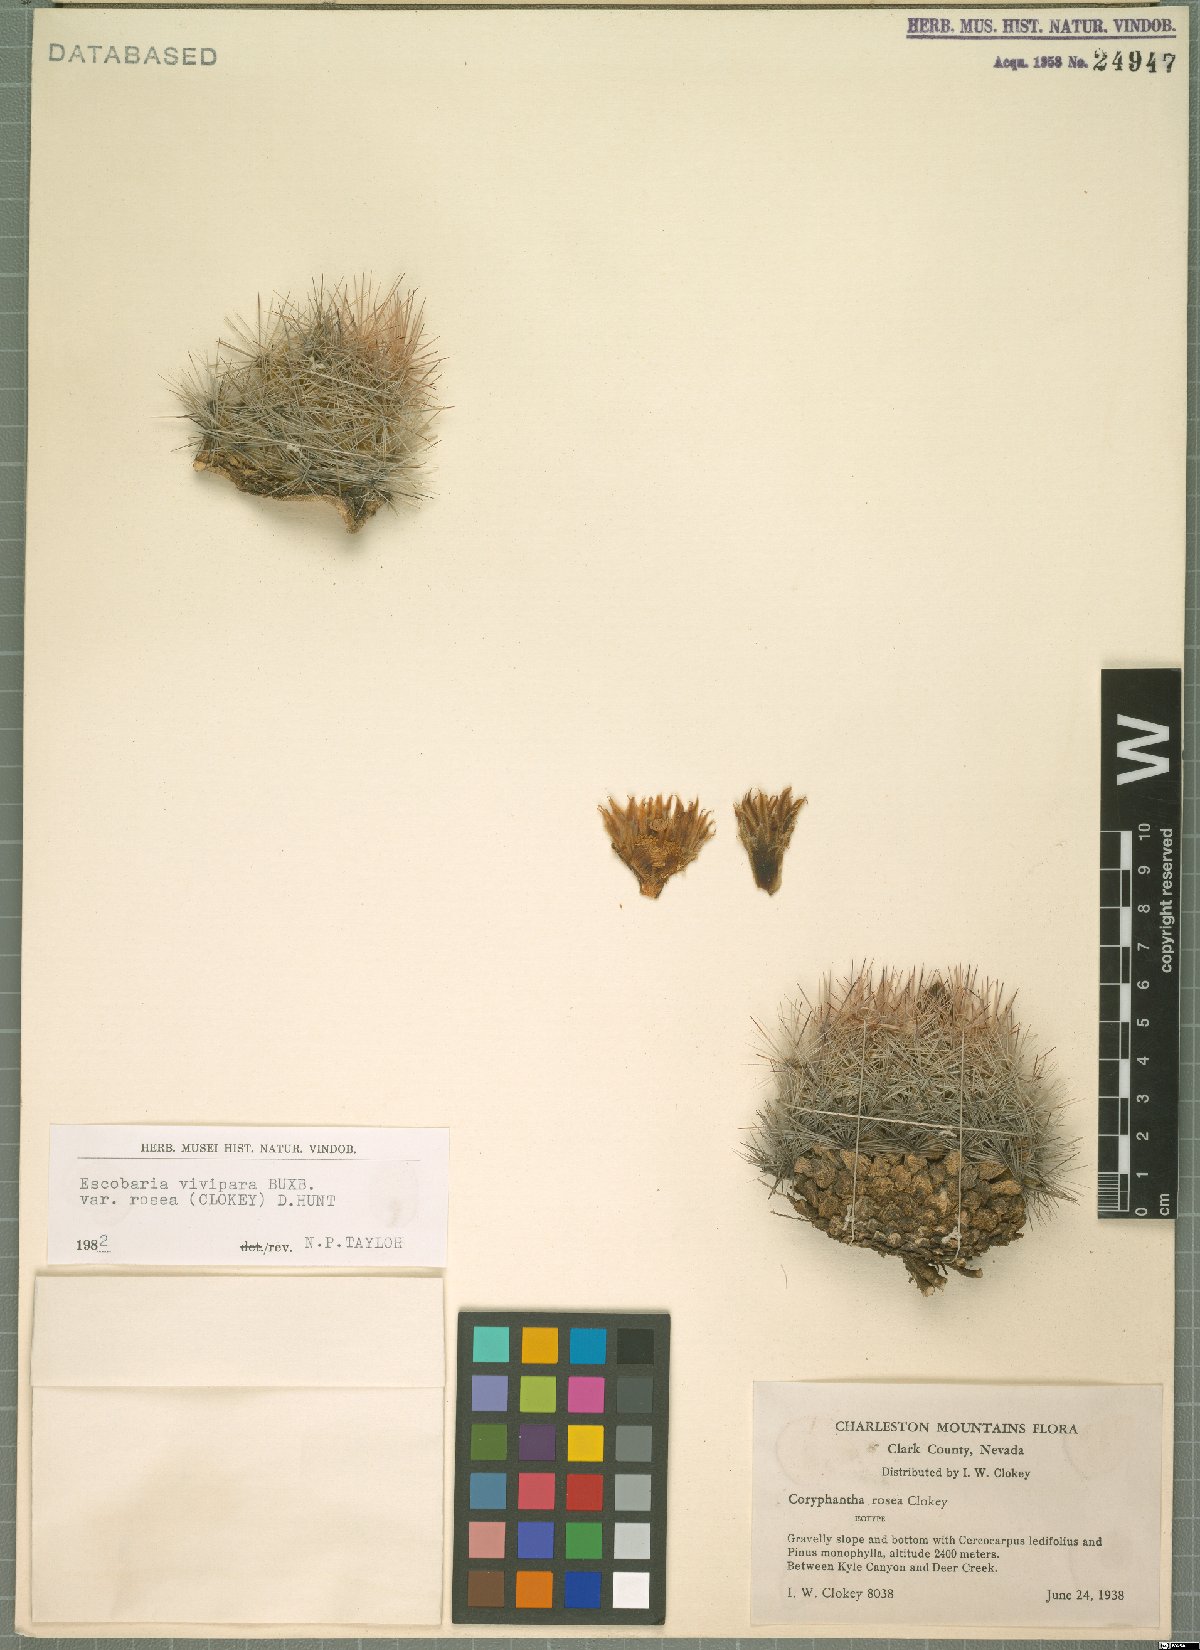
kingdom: Plantae
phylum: Tracheophyta
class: Magnoliopsida
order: Caryophyllales
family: Cactaceae
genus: Pelecyphora
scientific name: Pelecyphora vivipara
